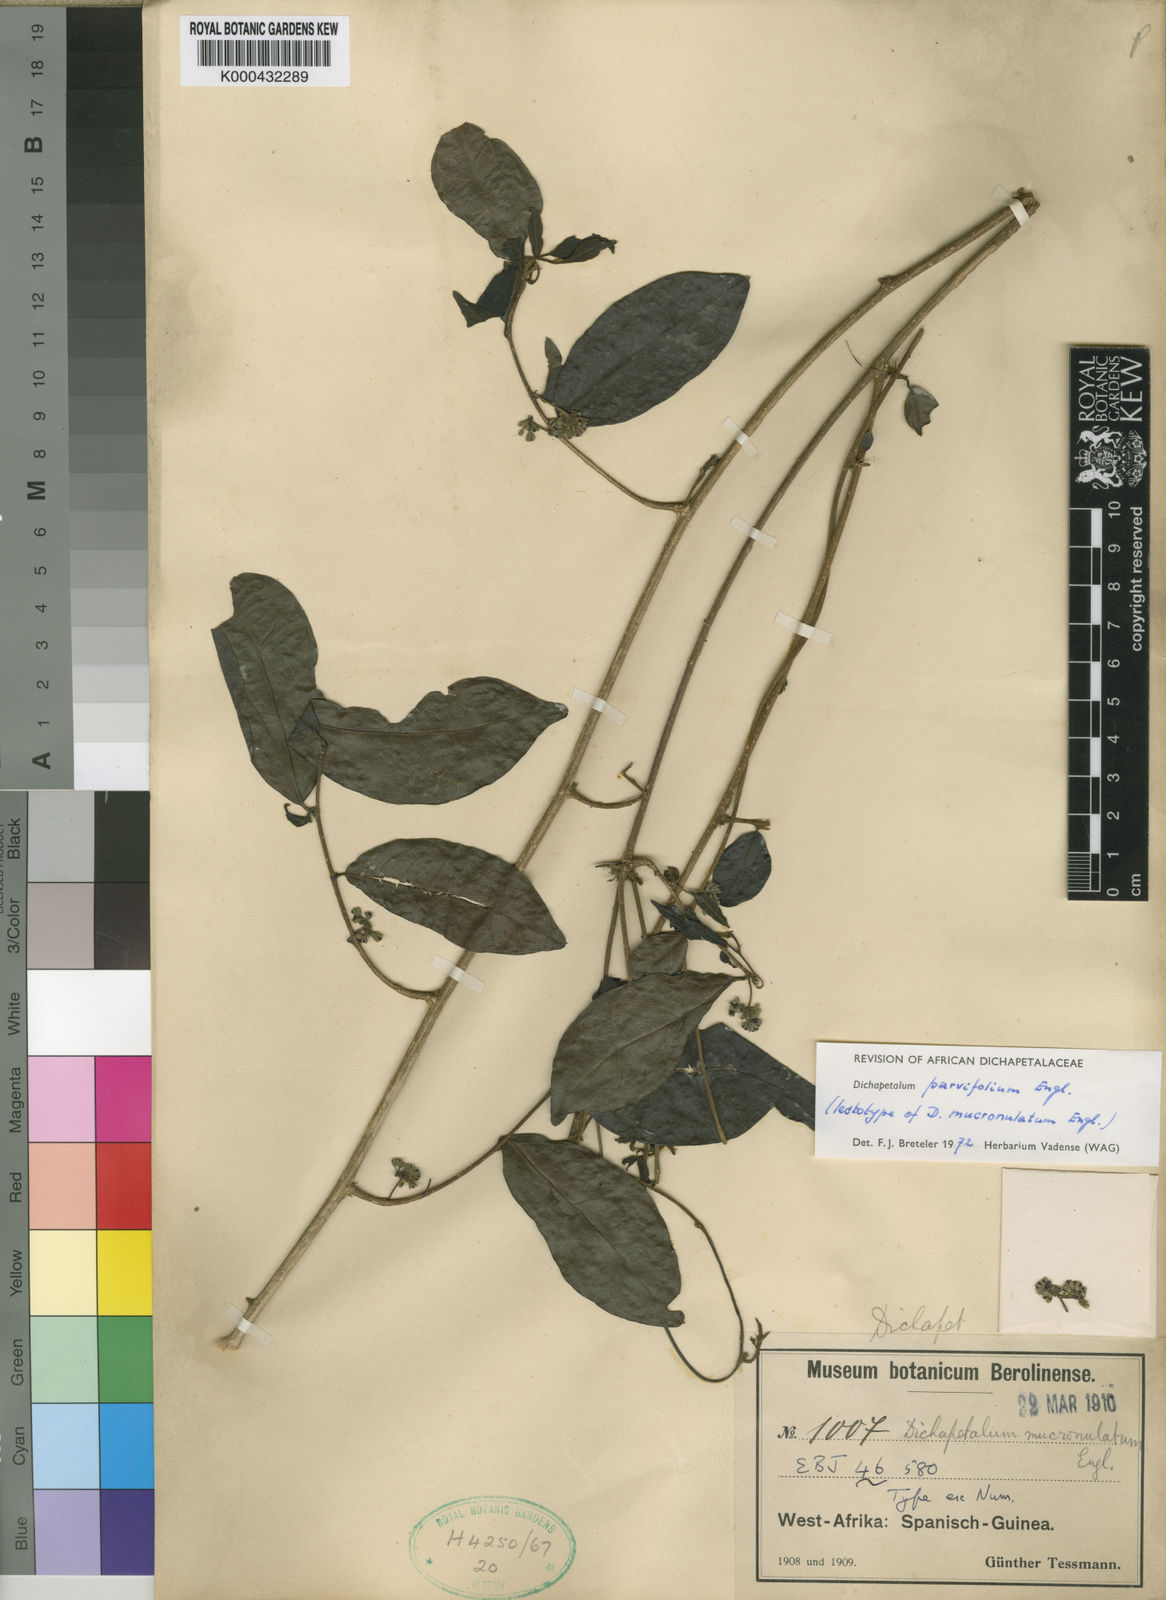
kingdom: Plantae
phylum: Tracheophyta
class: Magnoliopsida
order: Malpighiales
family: Dichapetalaceae
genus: Dichapetalum
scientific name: Dichapetalum parvifolium
